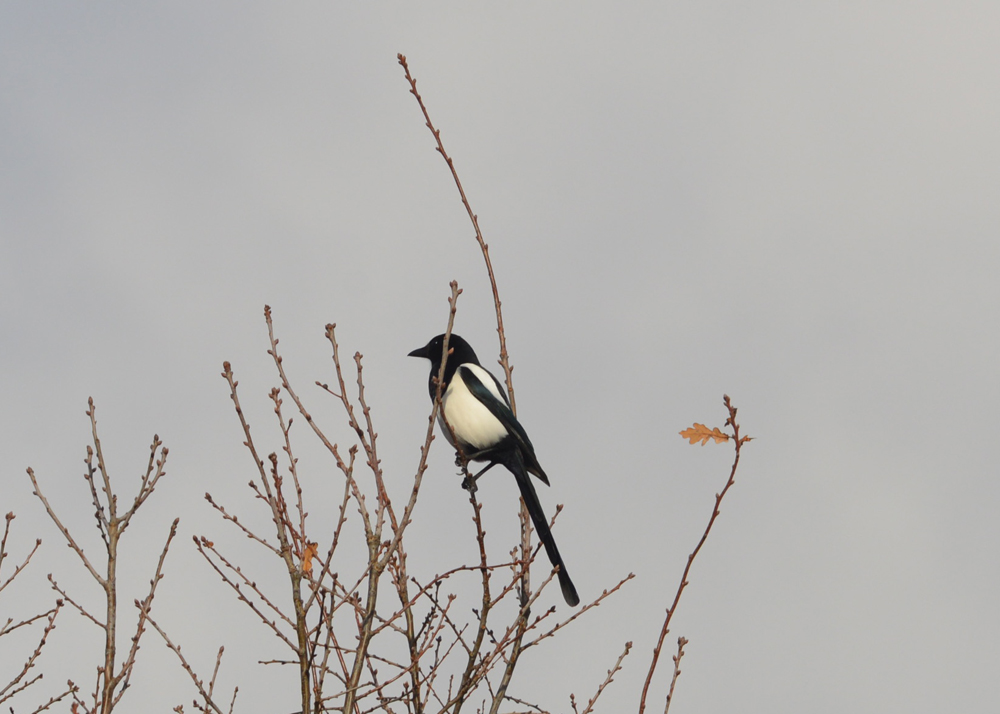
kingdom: Animalia
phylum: Chordata
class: Aves
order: Passeriformes
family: Corvidae
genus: Pica
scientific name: Pica pica
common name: Eurasian magpie
